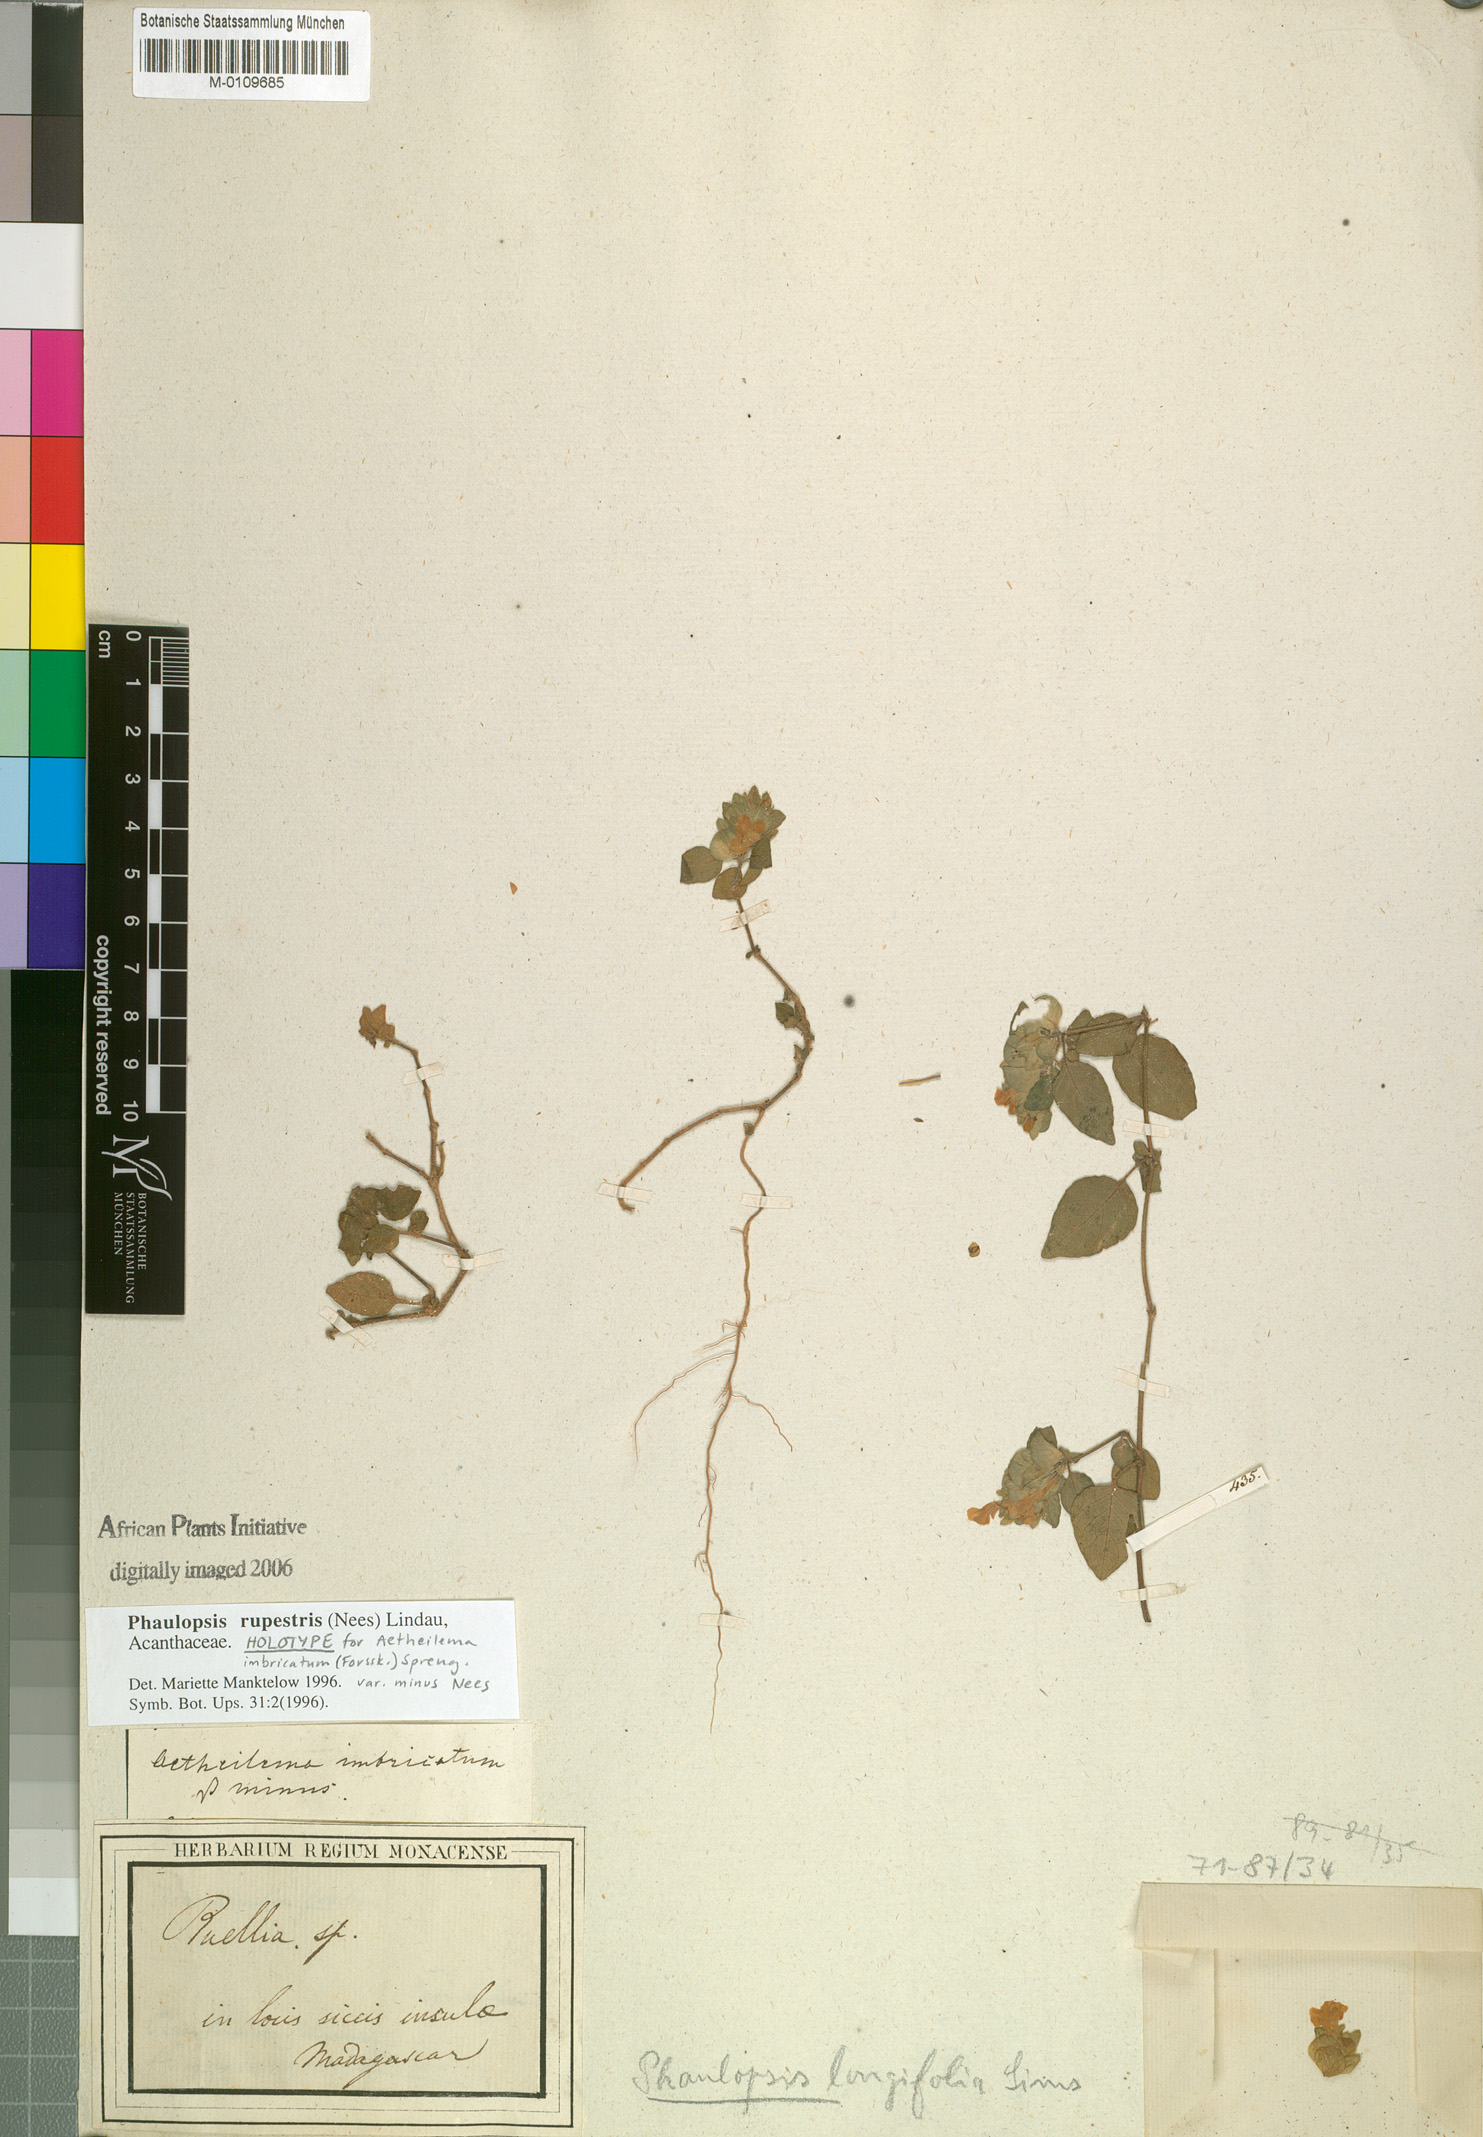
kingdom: Plantae
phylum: Tracheophyta
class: Magnoliopsida
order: Lamiales
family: Acanthaceae
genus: Phaulopsis
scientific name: Phaulopsis rupestris
